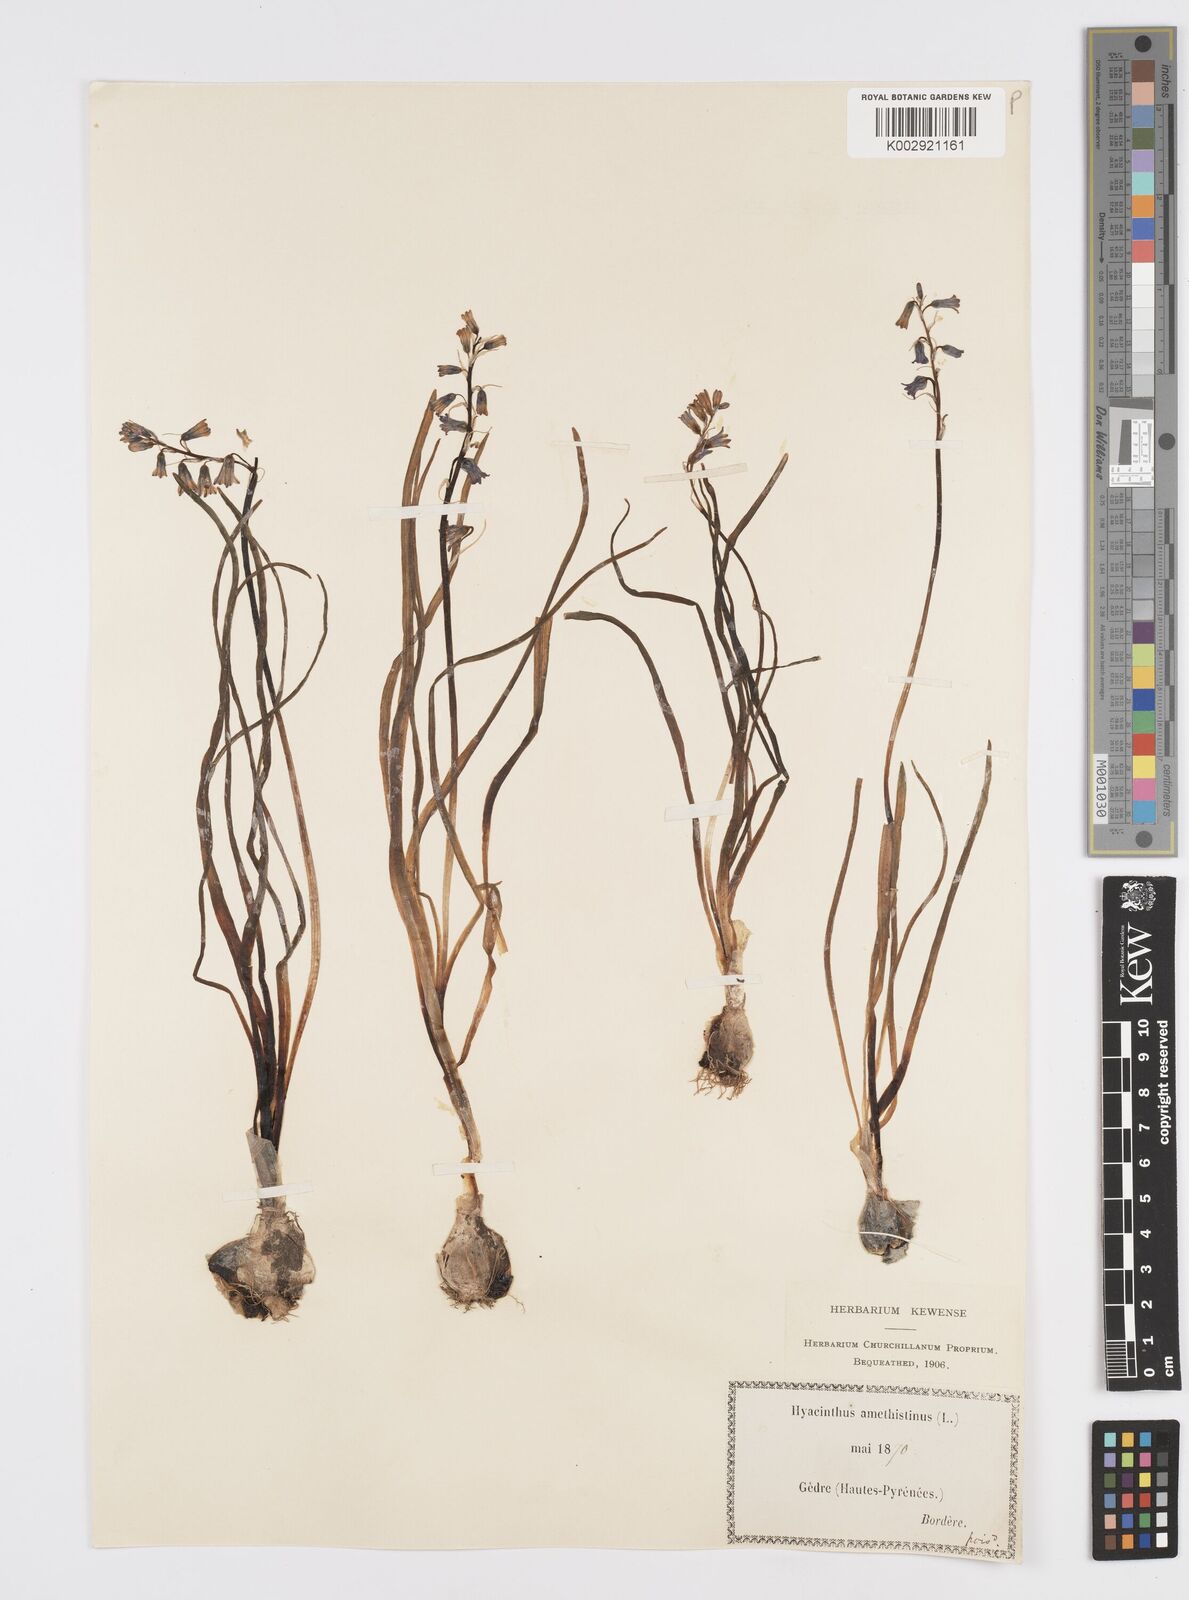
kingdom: Plantae
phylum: Tracheophyta
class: Liliopsida
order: Asparagales
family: Asparagaceae
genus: Brimeura
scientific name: Brimeura amethystina
